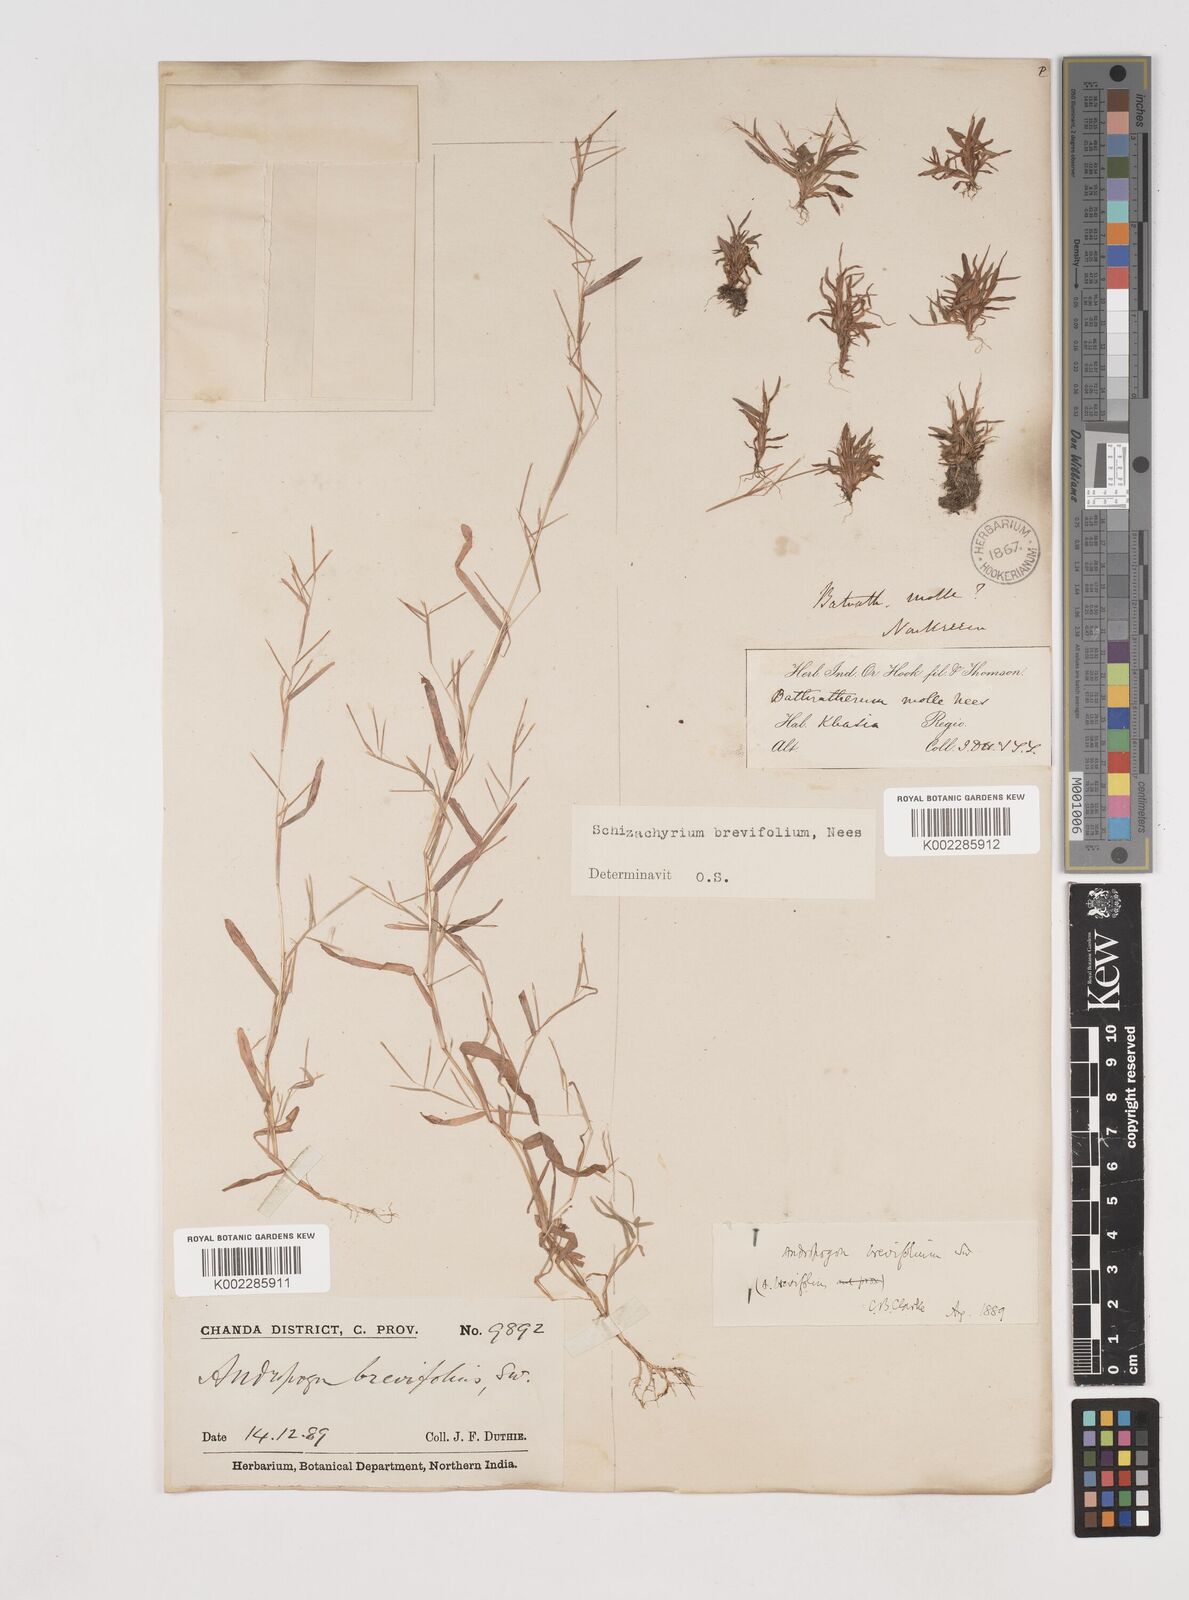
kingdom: Plantae
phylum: Tracheophyta
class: Liliopsida
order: Poales
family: Poaceae
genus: Schizachyrium
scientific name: Schizachyrium brevifolium
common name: Serillo dulce
